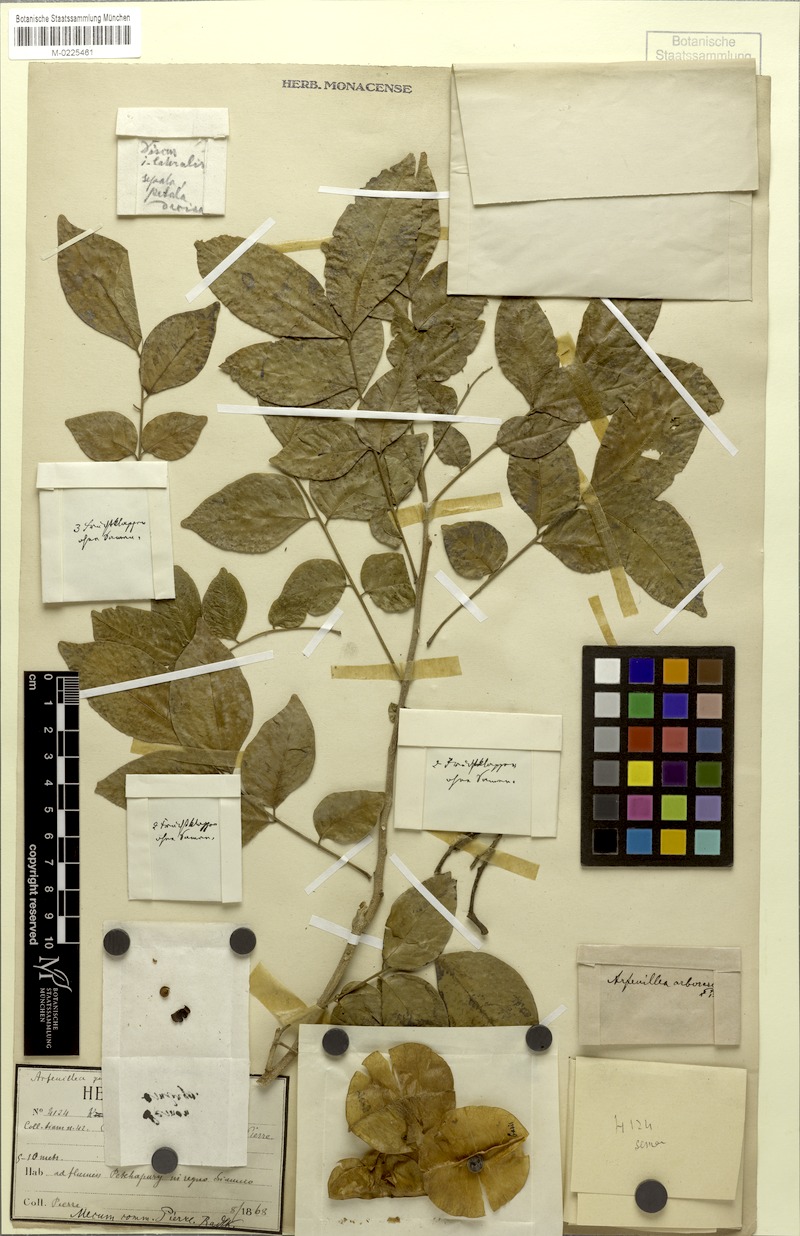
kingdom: Plantae
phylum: Tracheophyta
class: Magnoliopsida
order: Sapindales
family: Sapindaceae
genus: Arfeuillea
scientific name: Arfeuillea arborescens
